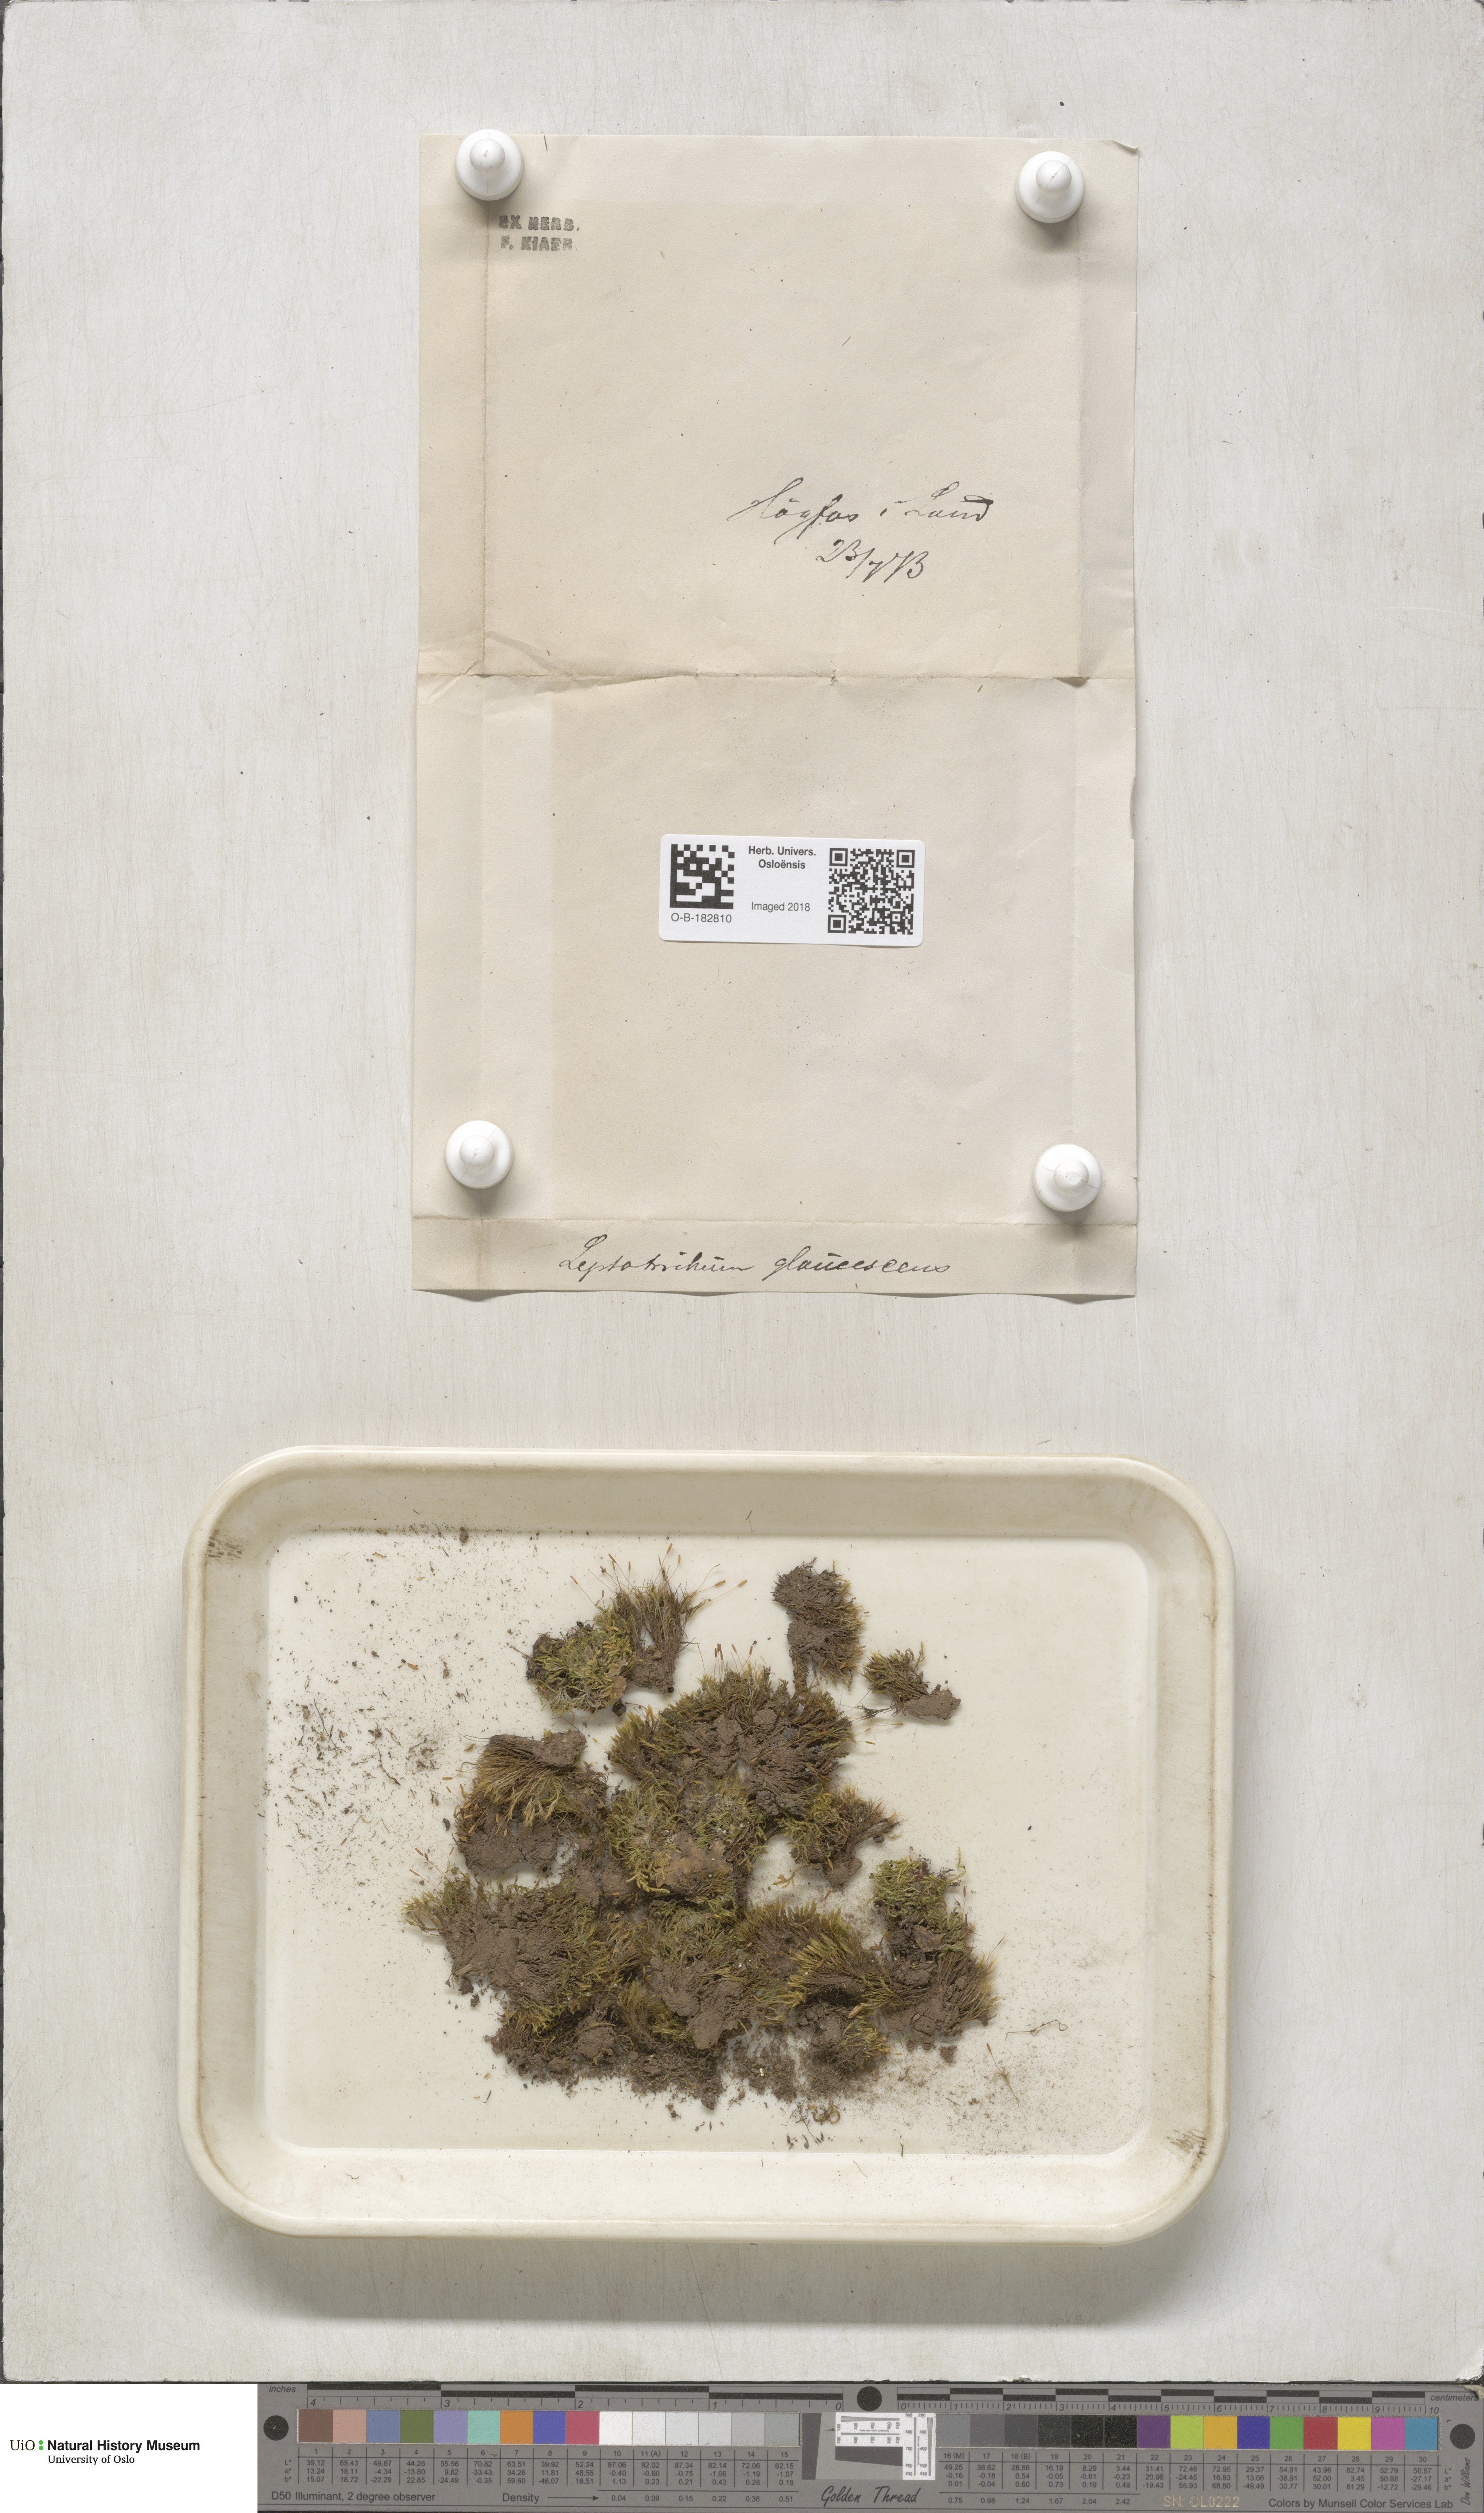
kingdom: Plantae
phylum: Bryophyta
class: Bryopsida
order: Grimmiales
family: Saelaniaceae
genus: Saelania
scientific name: Saelania glaucescens
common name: Blue dew-moss
